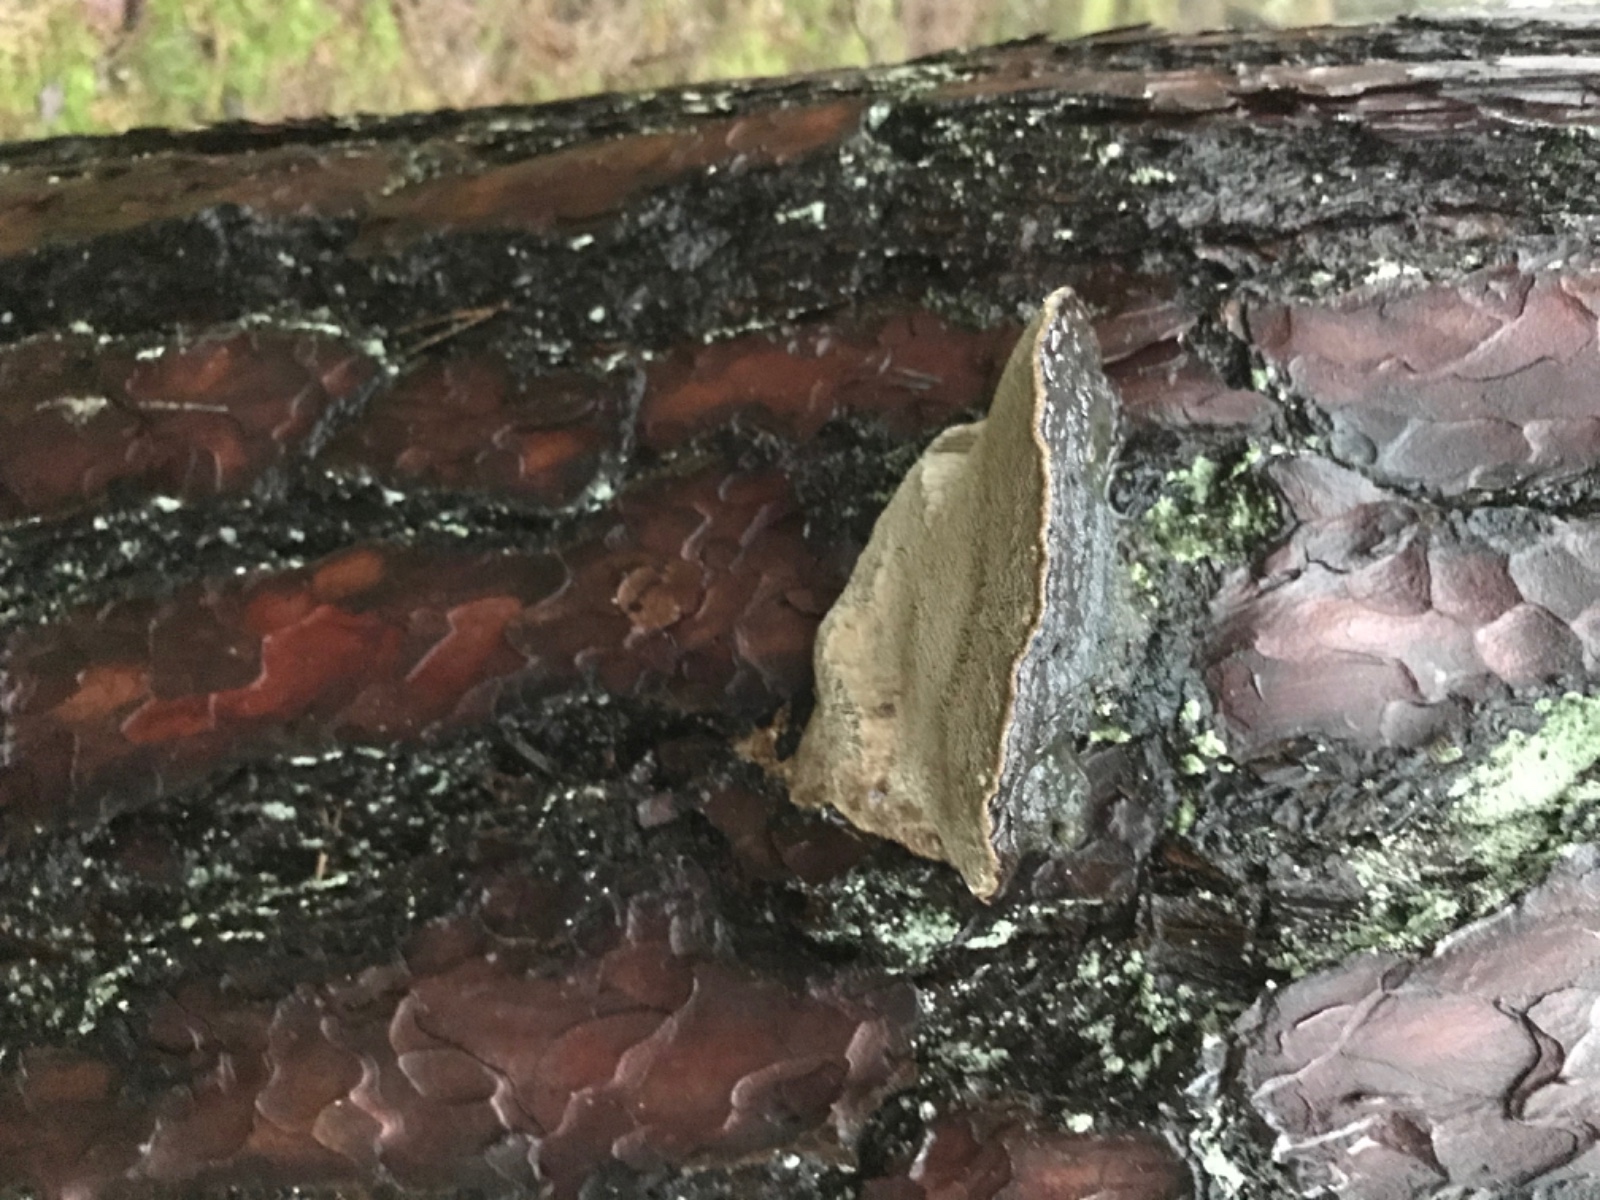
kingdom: Fungi
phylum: Basidiomycota
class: Agaricomycetes
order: Hymenochaetales
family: Hymenochaetaceae
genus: Porodaedalea
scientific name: Porodaedalea pini
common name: fyrre-ildporesvamp
